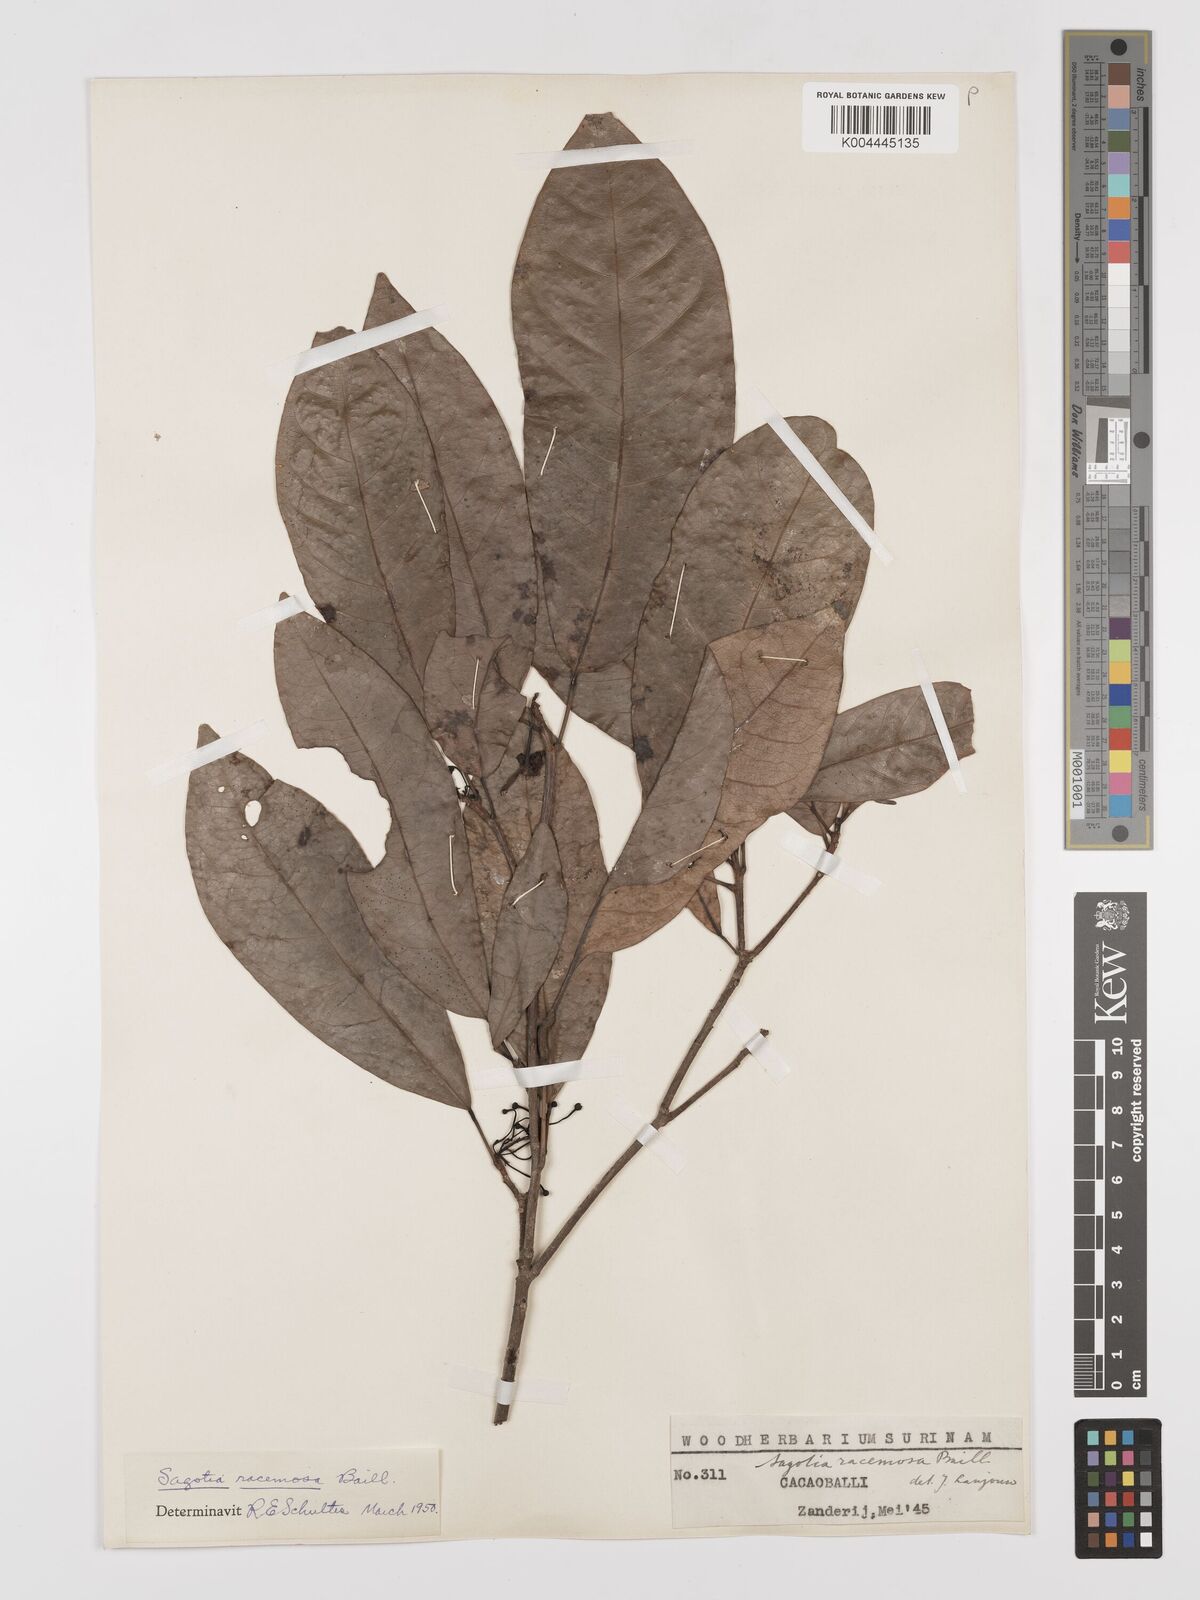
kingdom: Plantae
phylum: Tracheophyta
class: Magnoliopsida
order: Malpighiales
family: Euphorbiaceae
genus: Sagotia
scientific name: Sagotia racemosa
